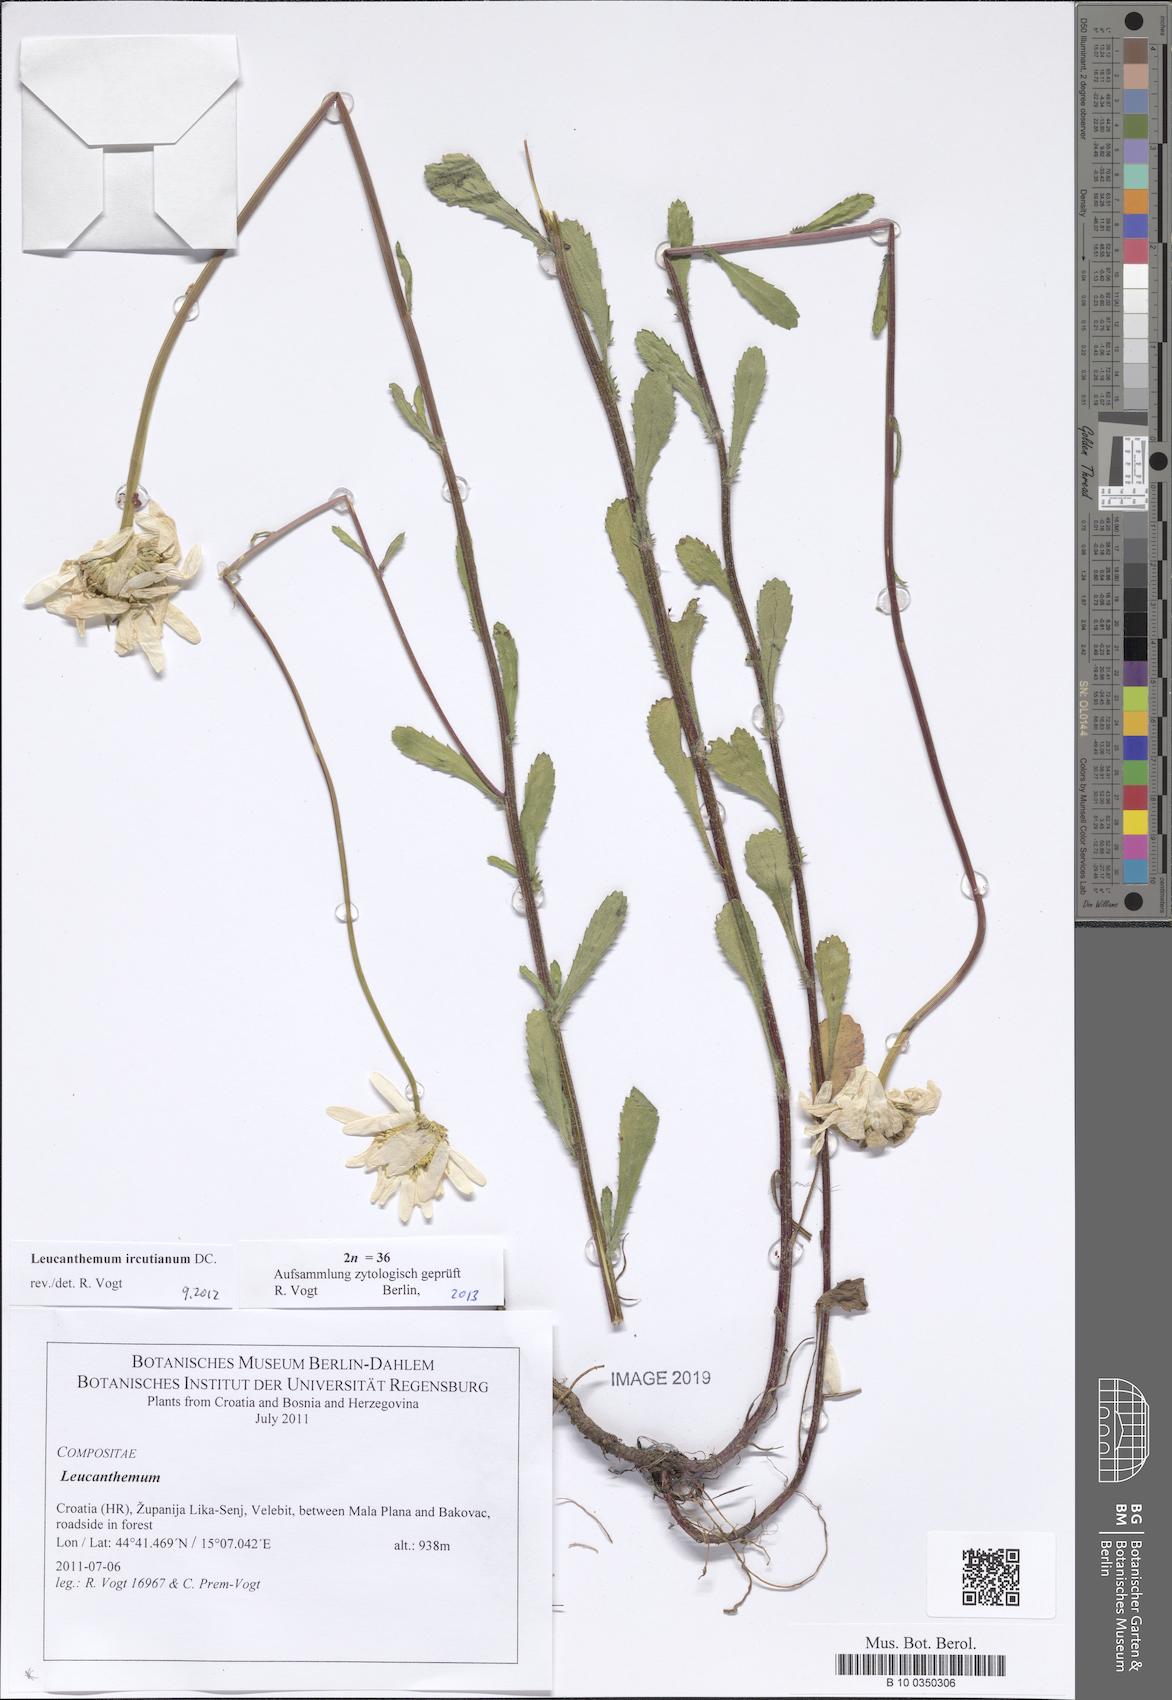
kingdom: Plantae
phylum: Tracheophyta
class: Magnoliopsida
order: Asterales
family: Asteraceae
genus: Leucanthemum
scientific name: Leucanthemum ircutianum
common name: Daisy
